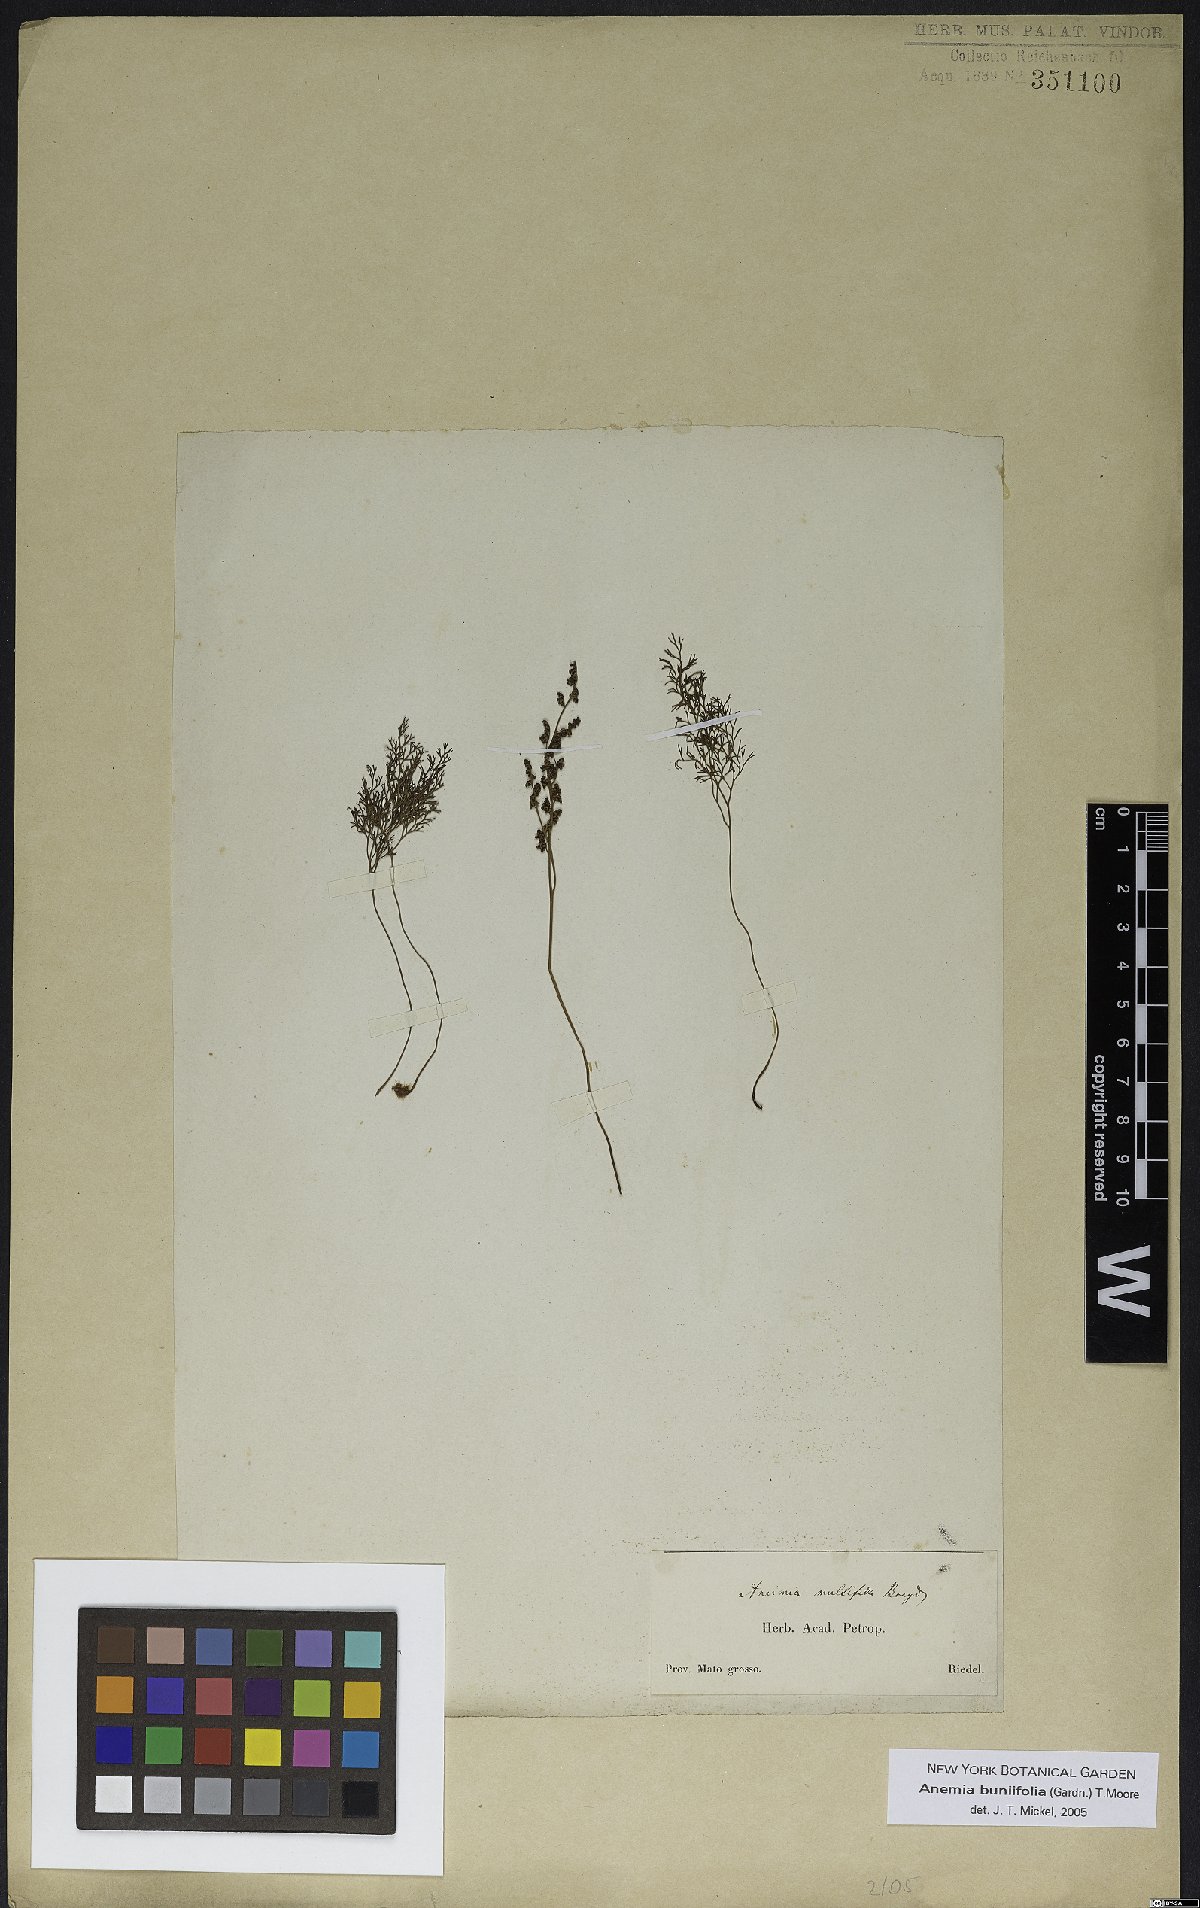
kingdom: Plantae
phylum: Tracheophyta
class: Polypodiopsida
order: Schizaeales
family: Anemiaceae
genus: Anemia
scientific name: Anemia buniifolia
